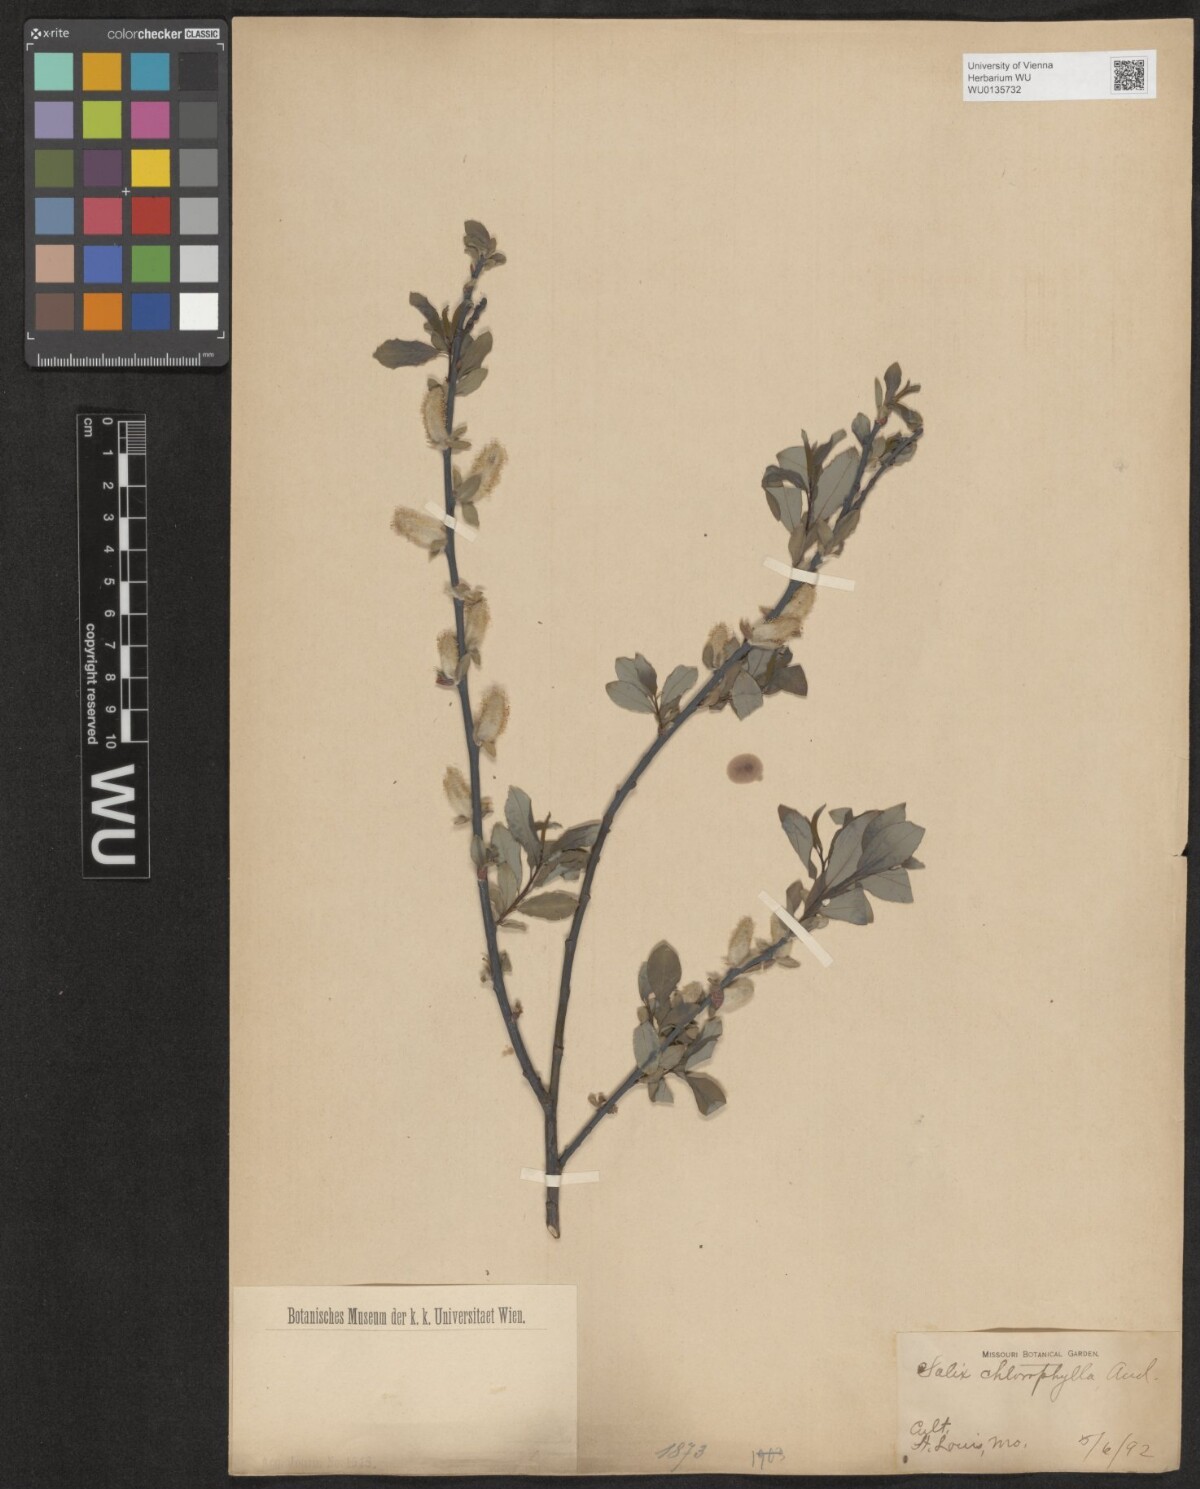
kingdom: Plantae
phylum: Tracheophyta
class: Magnoliopsida
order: Malpighiales
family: Salicaceae
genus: Salix
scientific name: Salix planifolia
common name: Mountain willow
